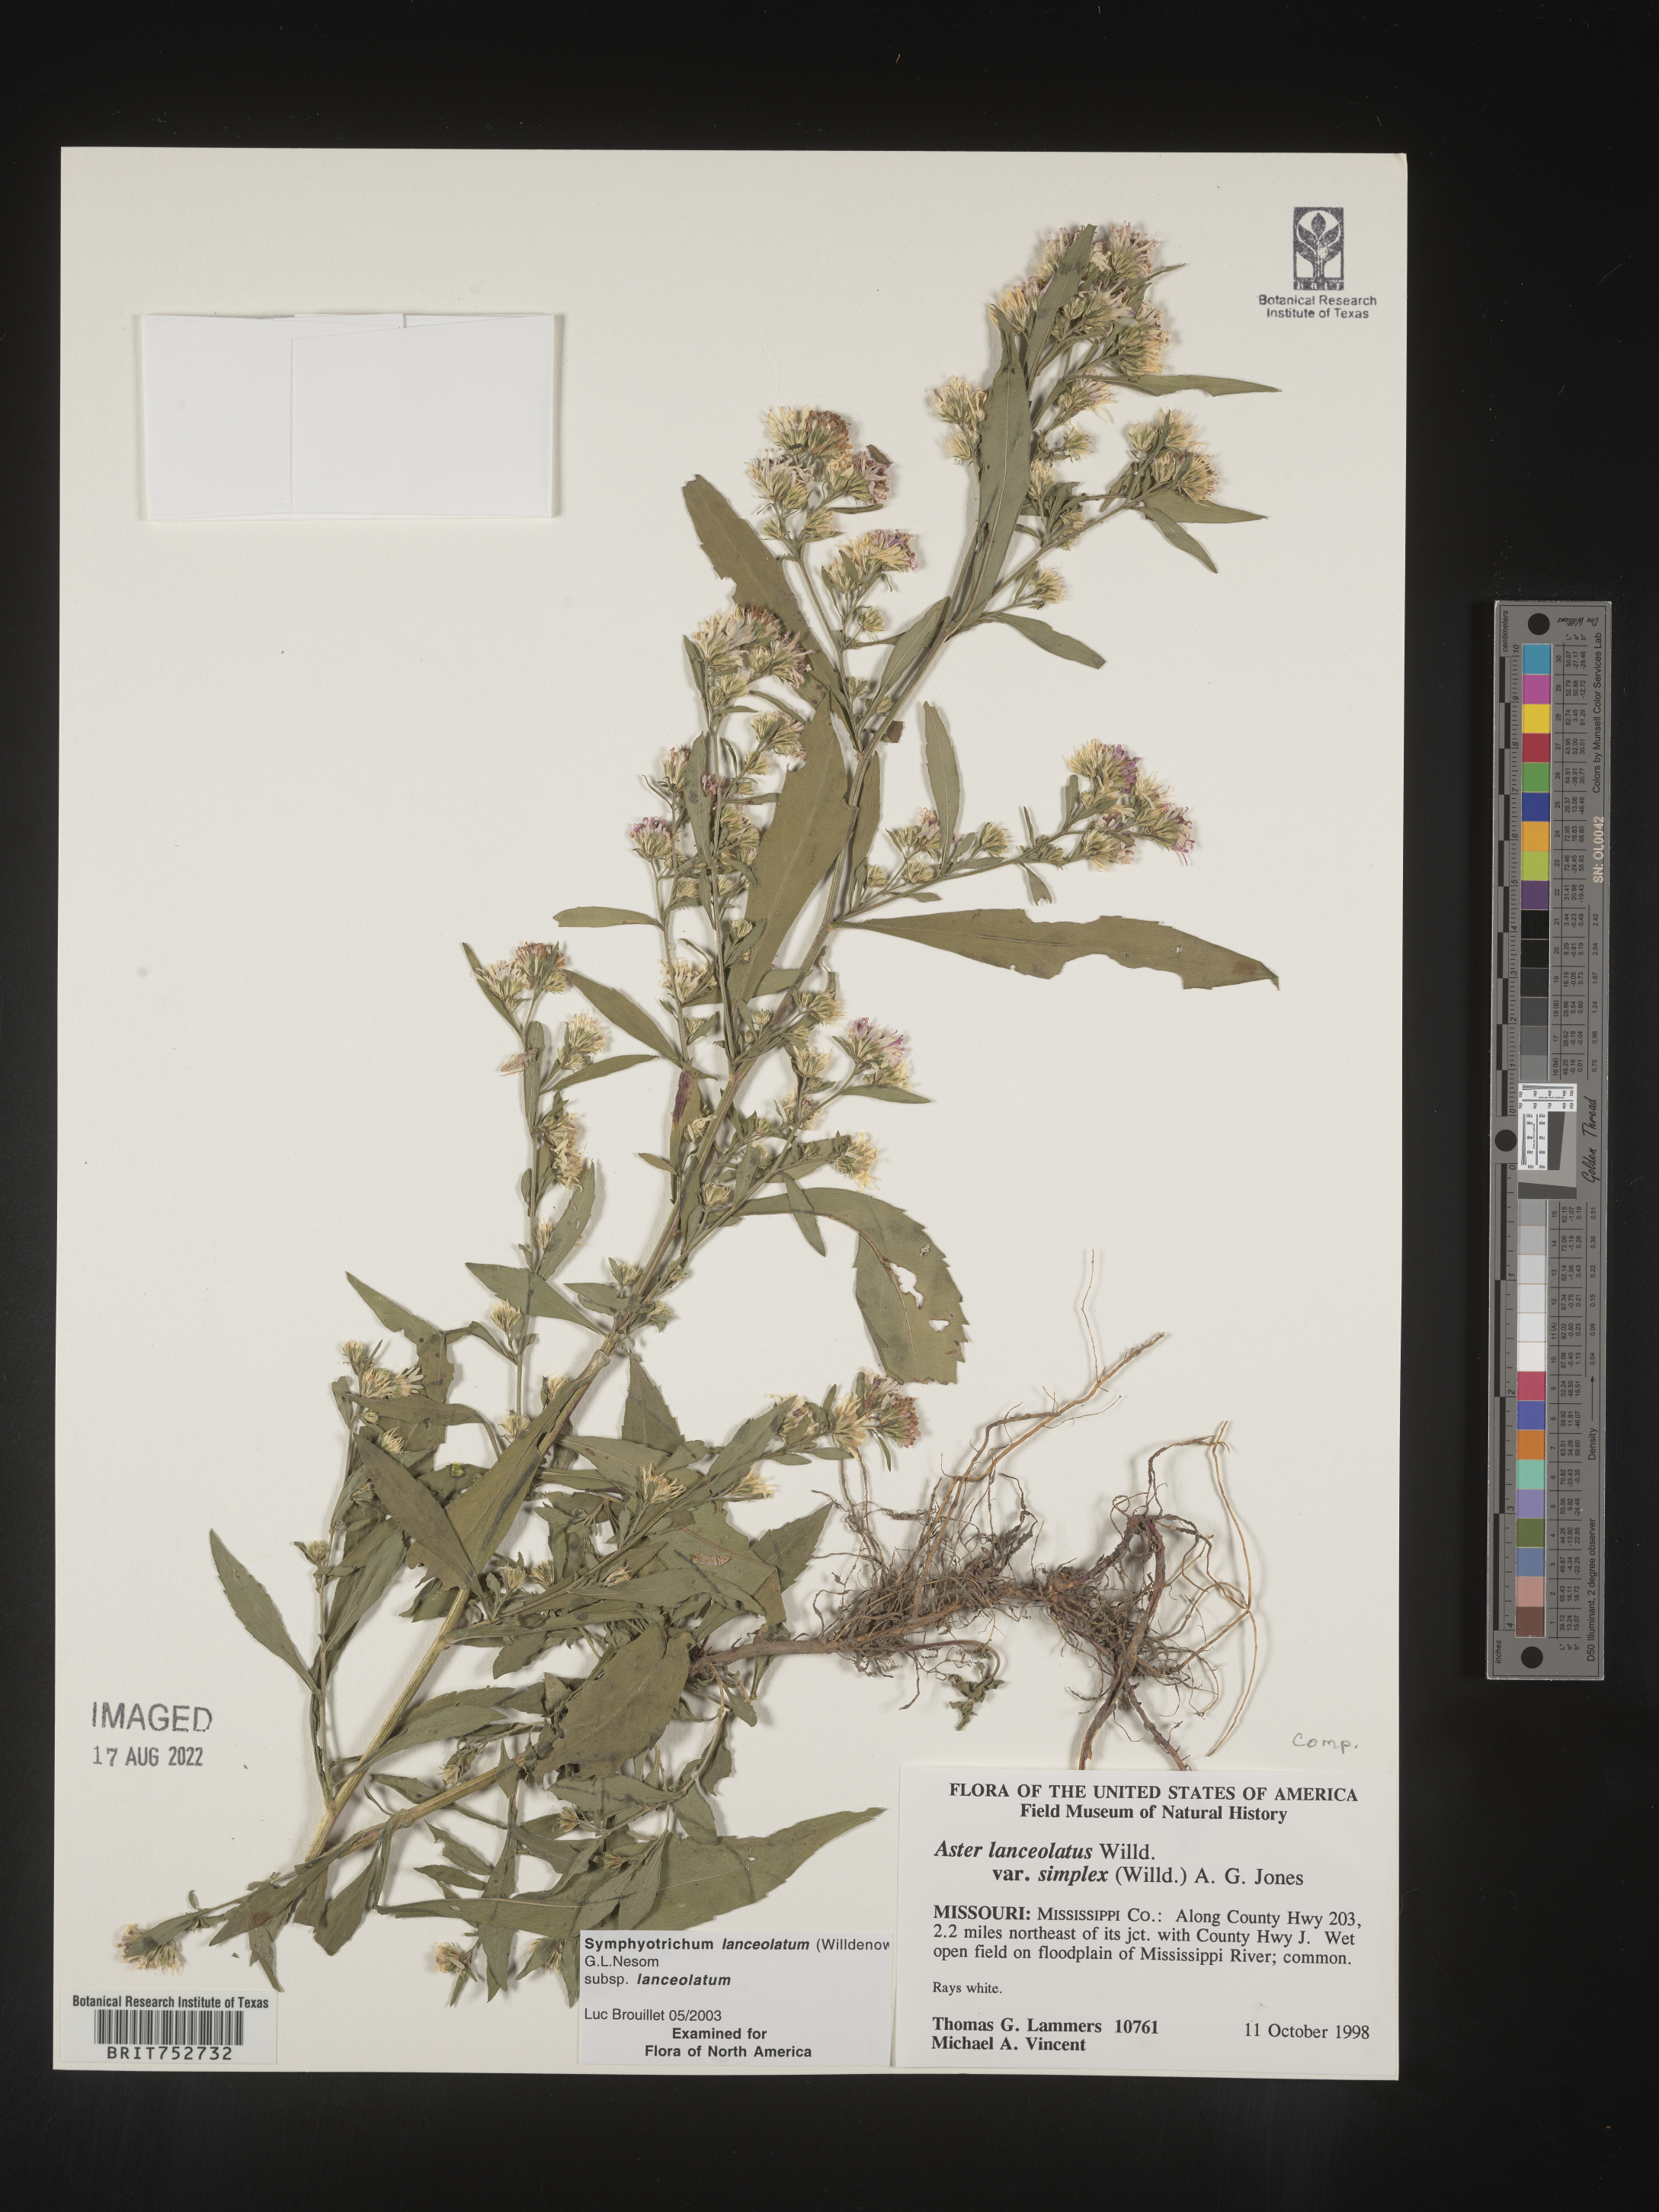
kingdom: Plantae
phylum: Tracheophyta
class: Magnoliopsida
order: Asterales
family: Asteraceae
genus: Symphyotrichum
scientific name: Symphyotrichum lanceolatum
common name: Panicled aster
